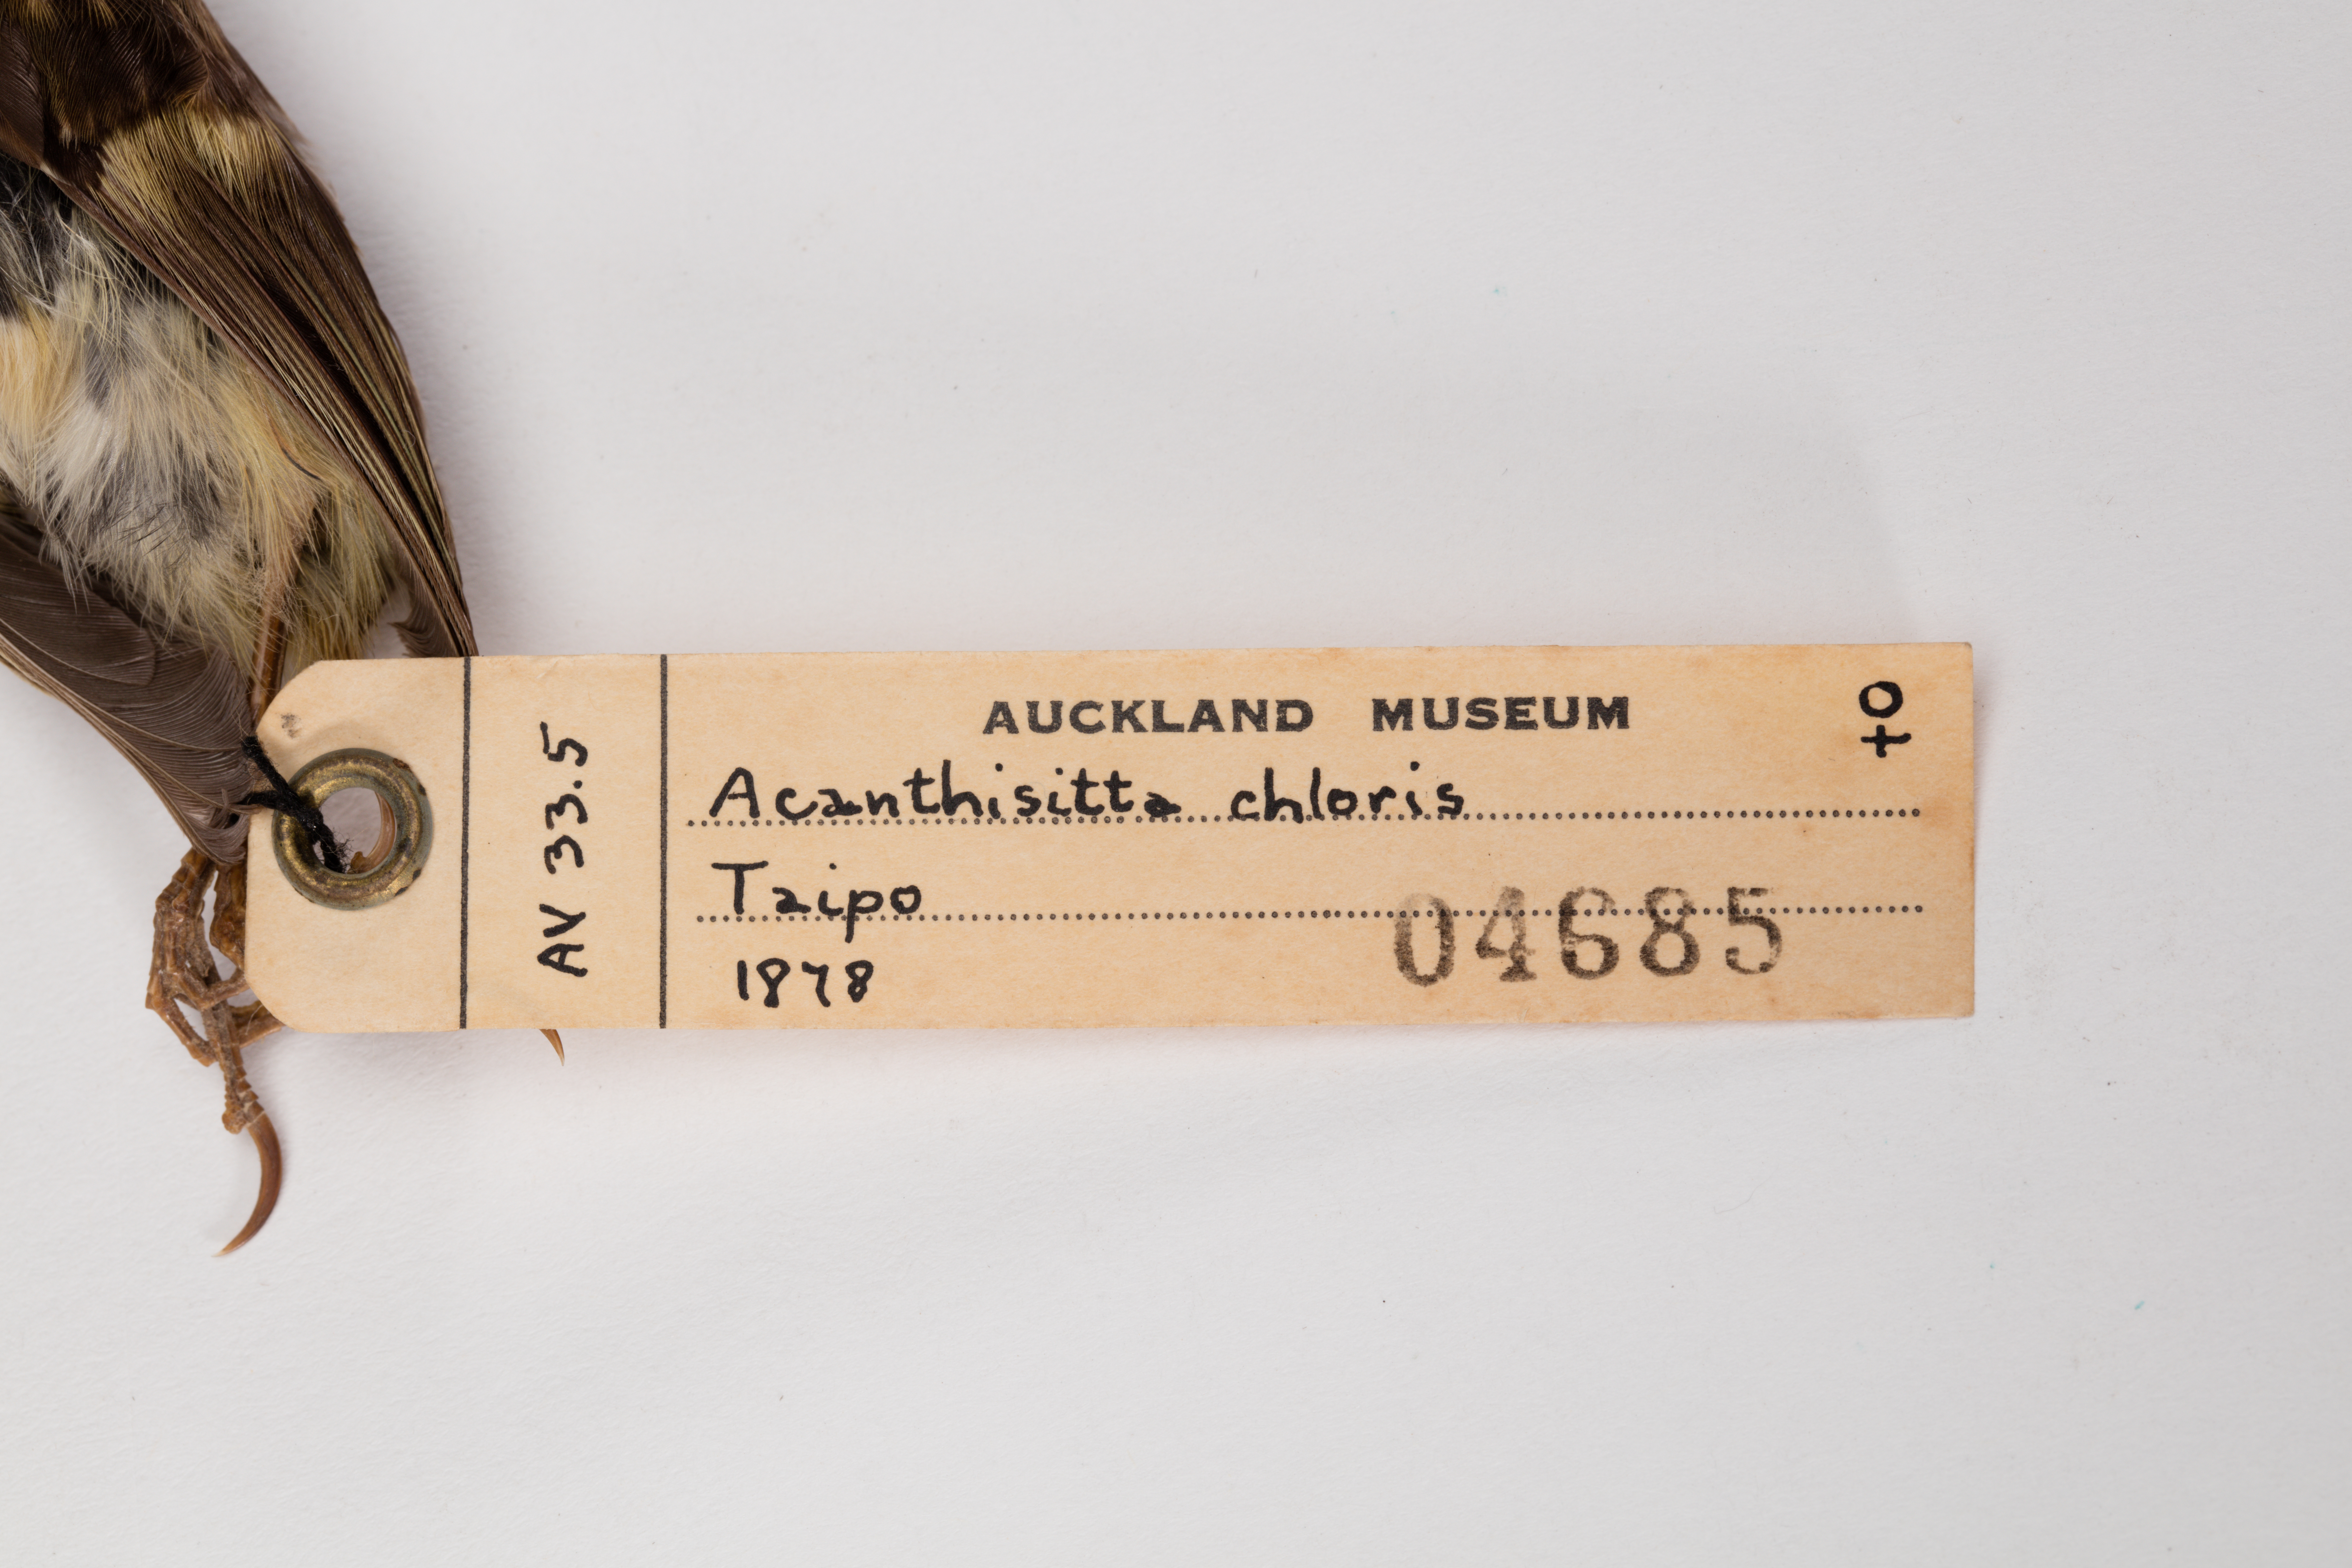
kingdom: Animalia
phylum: Chordata
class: Aves
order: Passeriformes
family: Acanthisittidae
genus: Acanthisitta
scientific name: Acanthisitta chloris
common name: Rifleman
